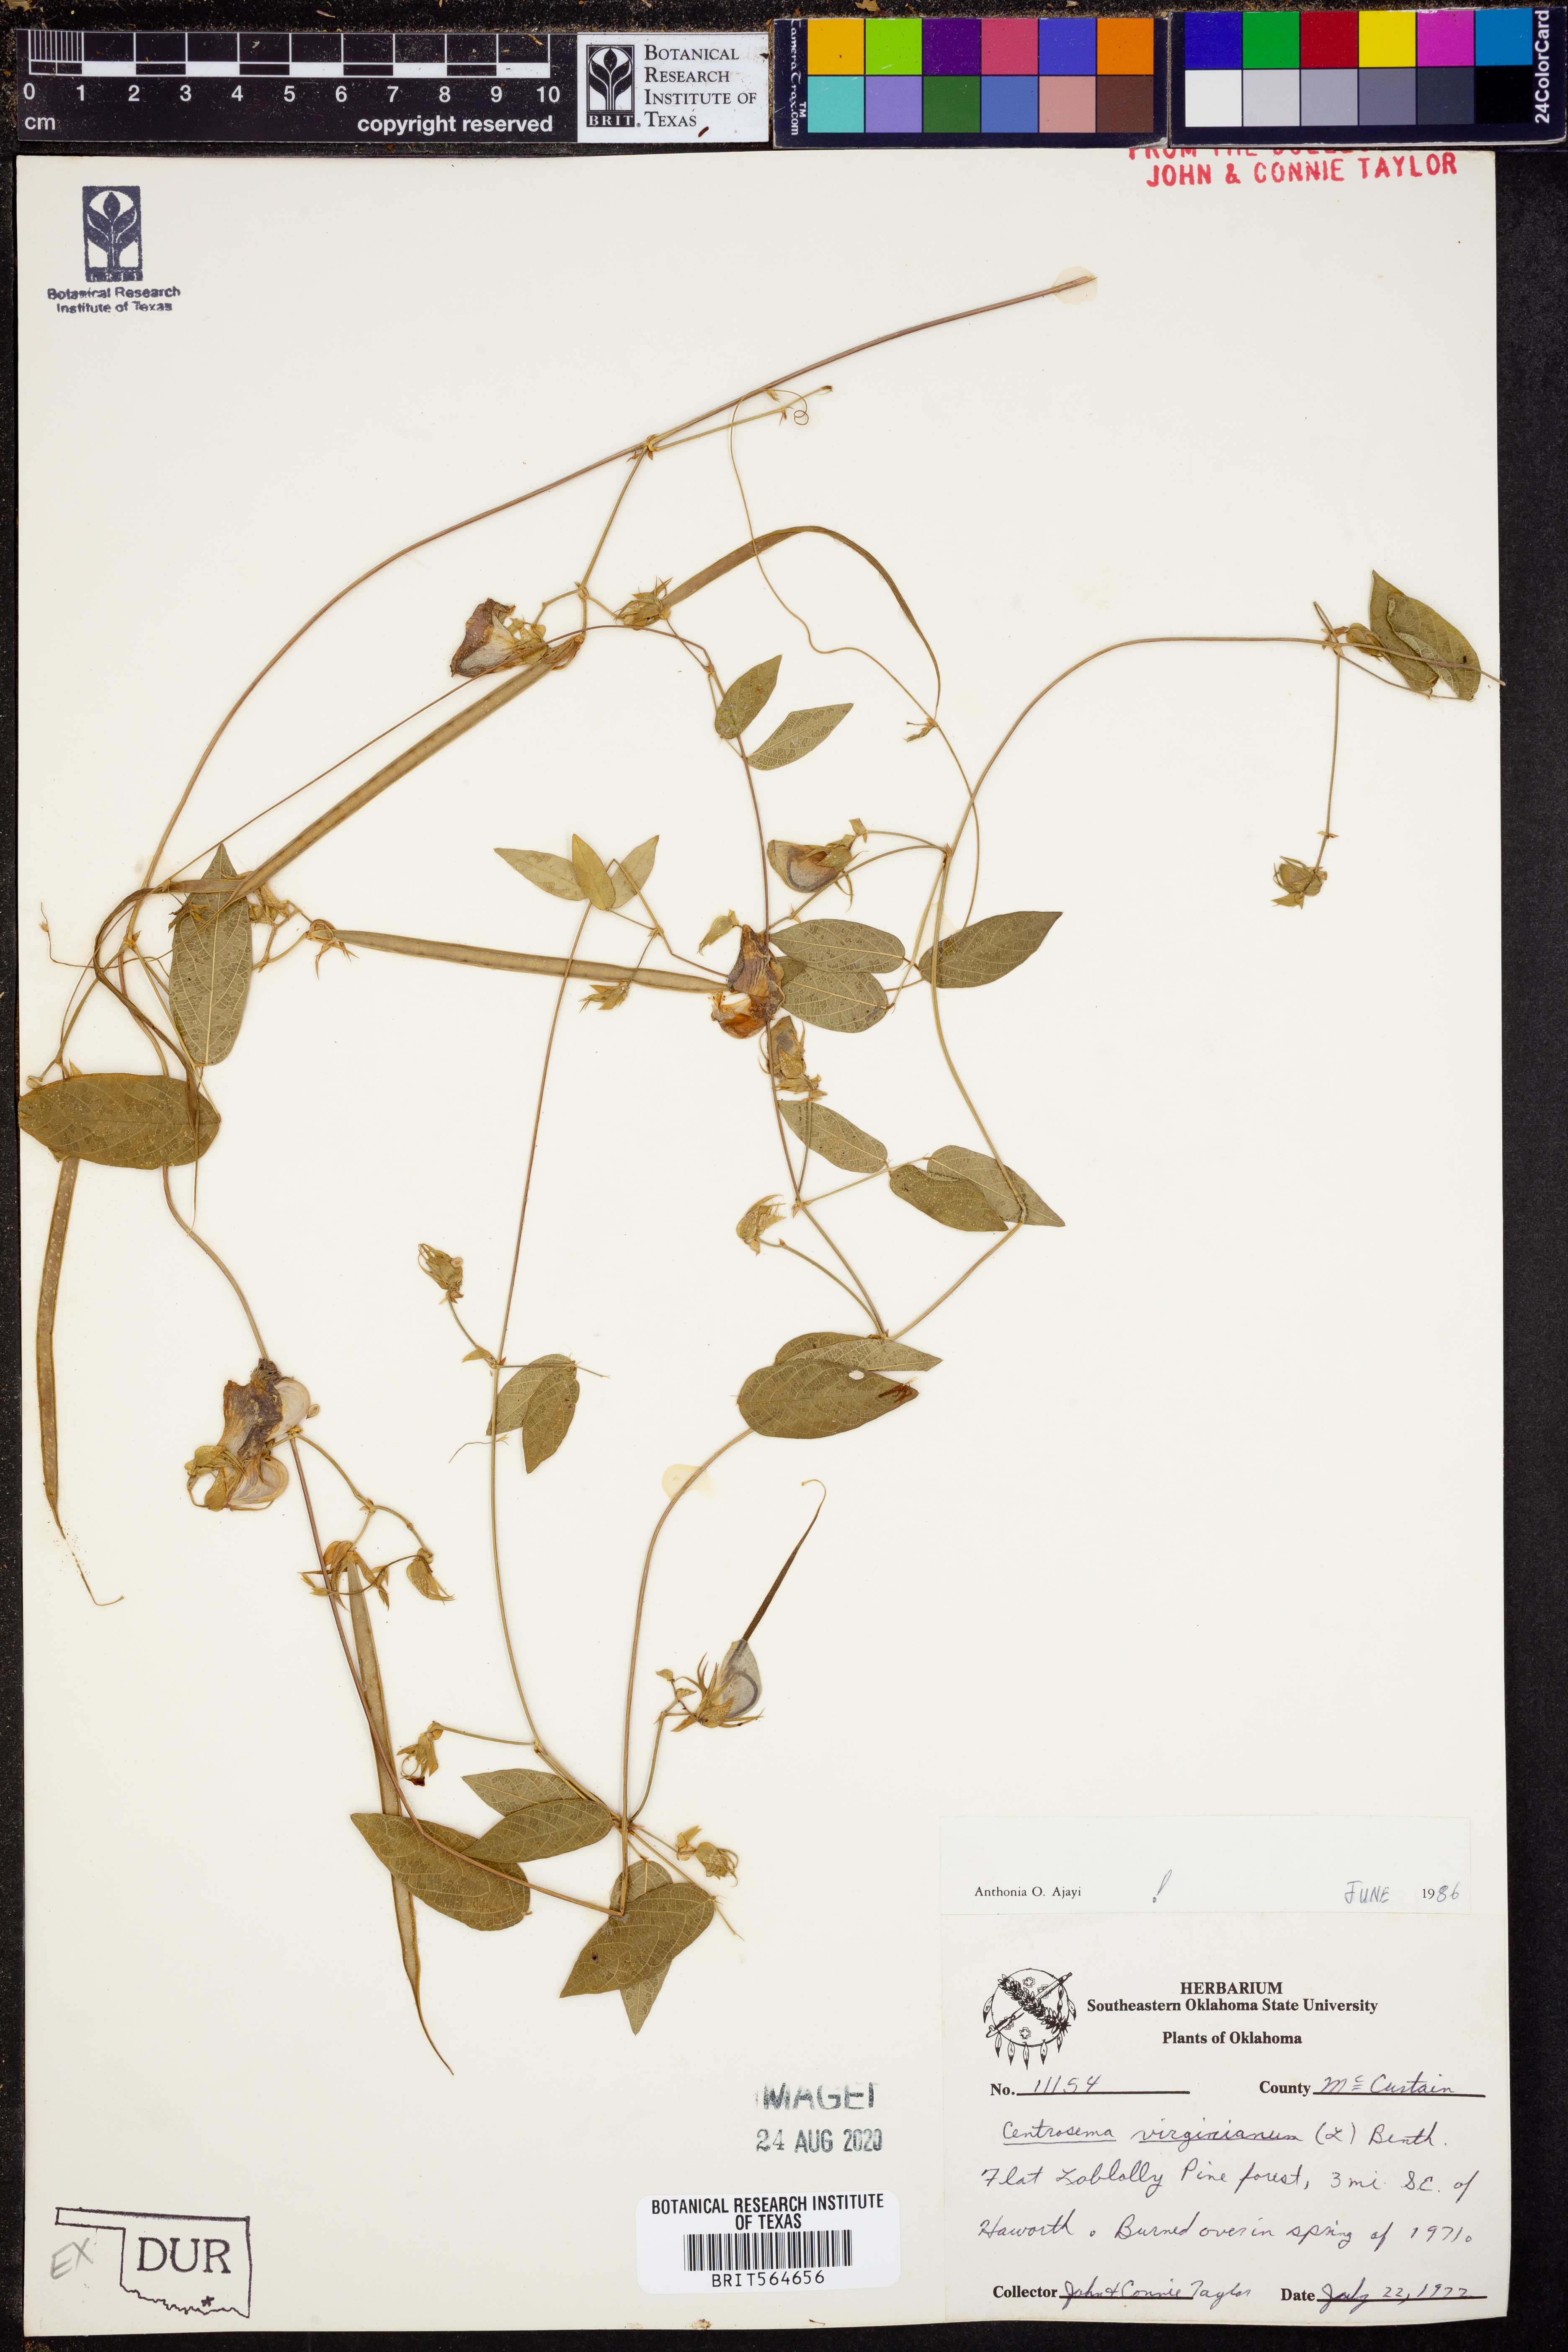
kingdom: Plantae
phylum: Tracheophyta
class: Magnoliopsida
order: Fabales
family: Fabaceae
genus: Centrosema
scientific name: Centrosema virginianum
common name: Butterfly-pea
